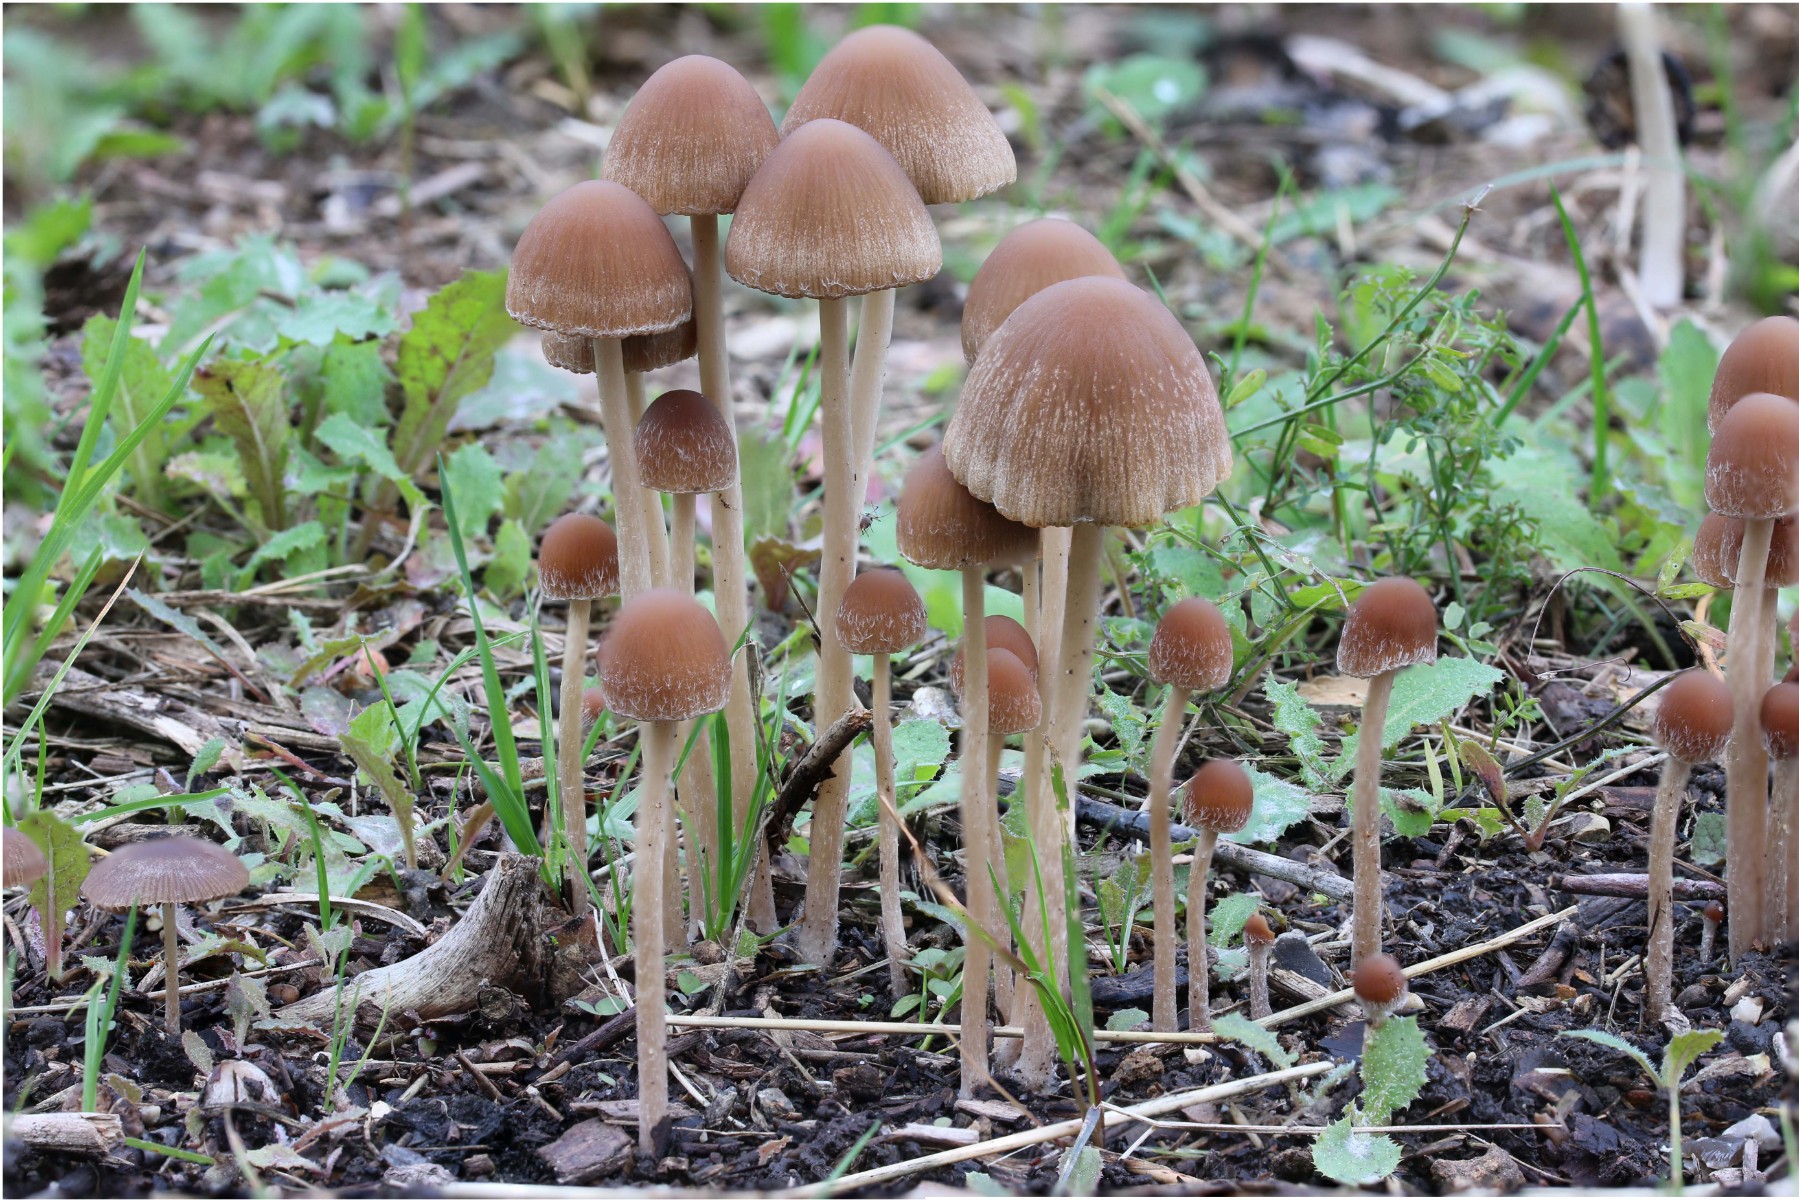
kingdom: Fungi
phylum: Basidiomycota
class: Agaricomycetes
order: Agaricales
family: Psathyrellaceae
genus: Parasola
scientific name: Parasola conopilea
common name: kegle-hjulhat
